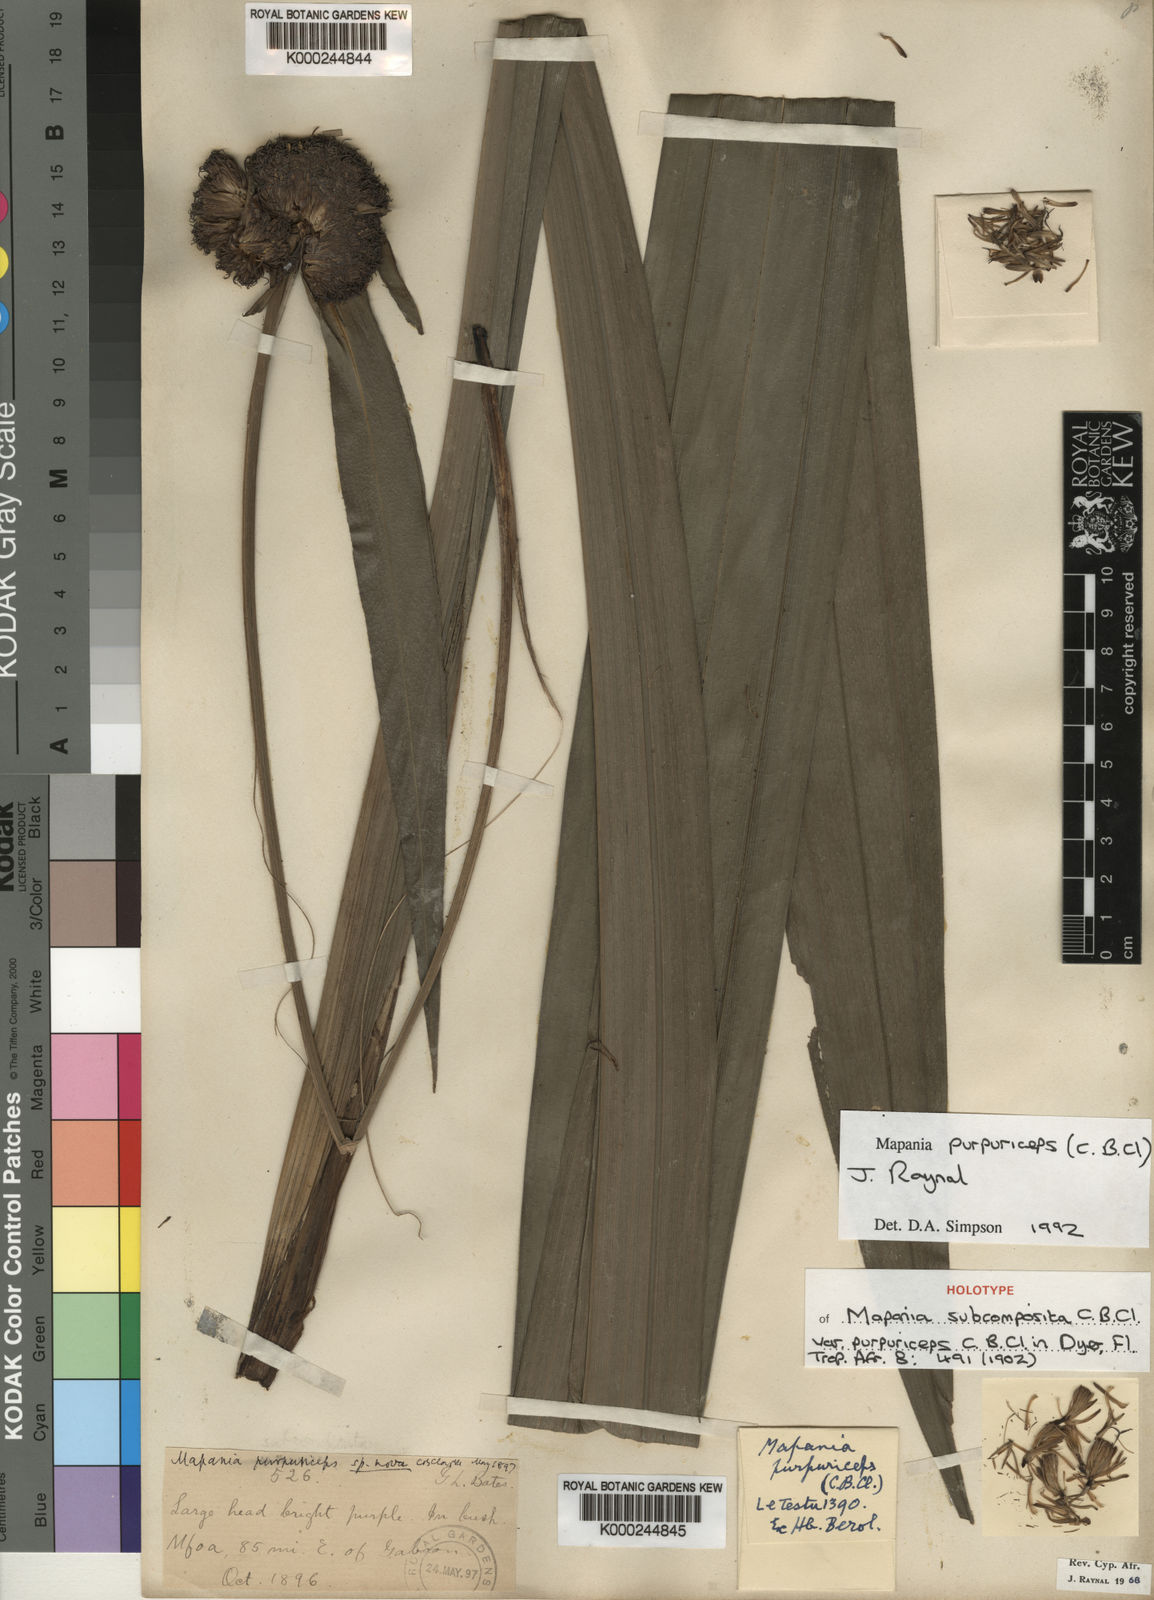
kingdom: Plantae
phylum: Tracheophyta
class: Liliopsida
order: Poales
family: Cyperaceae
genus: Mapania
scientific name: Mapania purpuriceps
